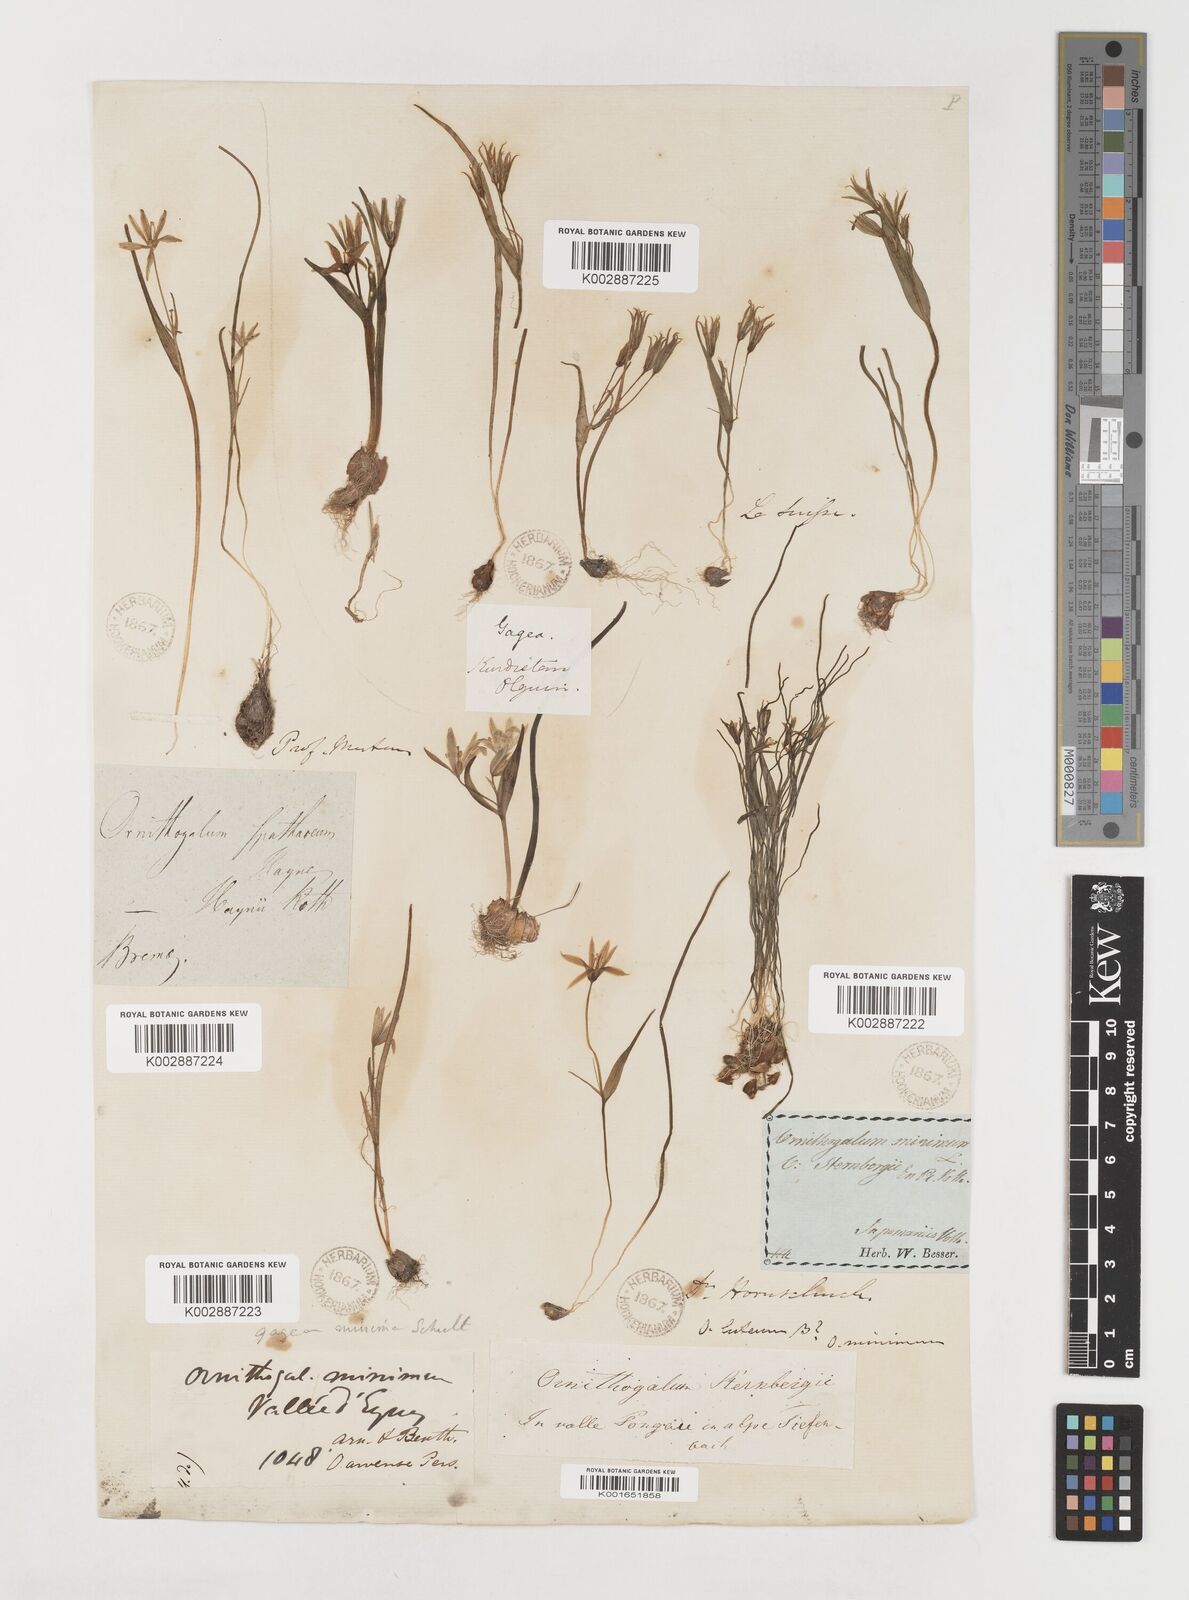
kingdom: Plantae
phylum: Tracheophyta
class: Liliopsida
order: Liliales
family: Liliaceae
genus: Gagea
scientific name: Gagea minima
